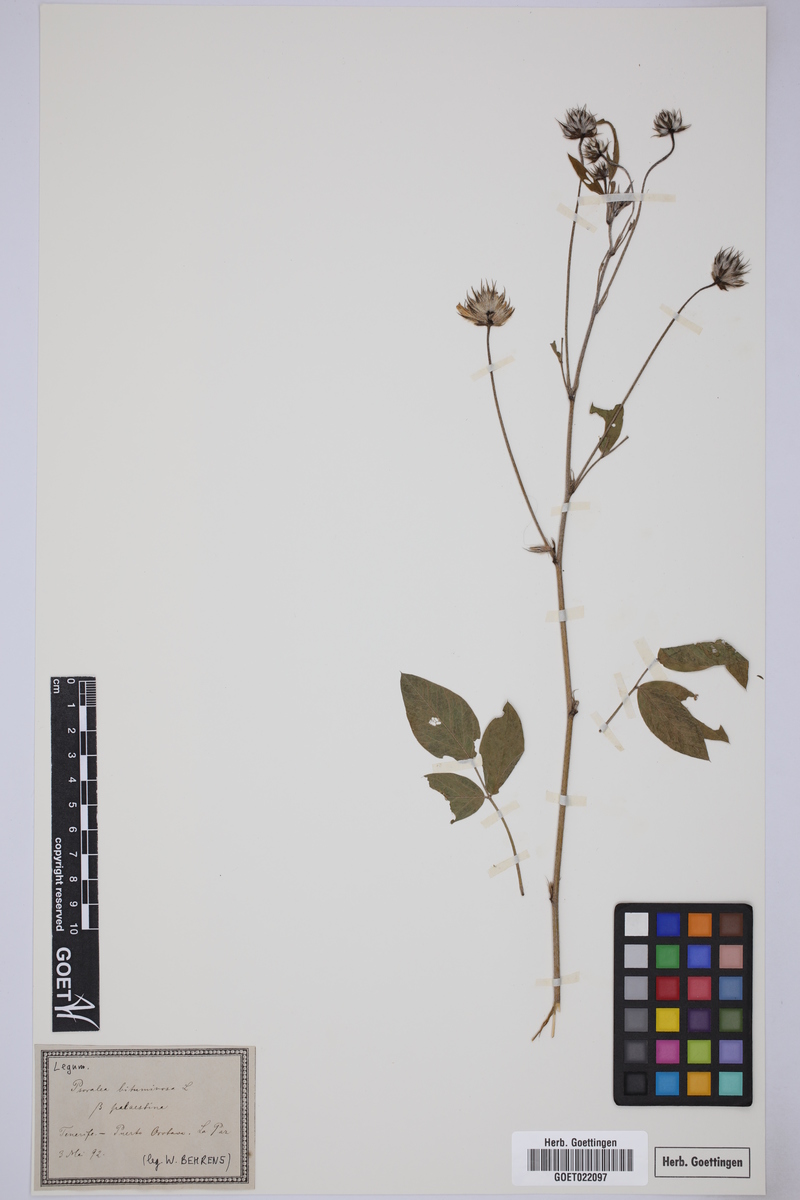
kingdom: Plantae
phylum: Tracheophyta
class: Magnoliopsida
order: Fabales
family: Fabaceae
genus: Bituminaria
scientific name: Bituminaria palaestina
